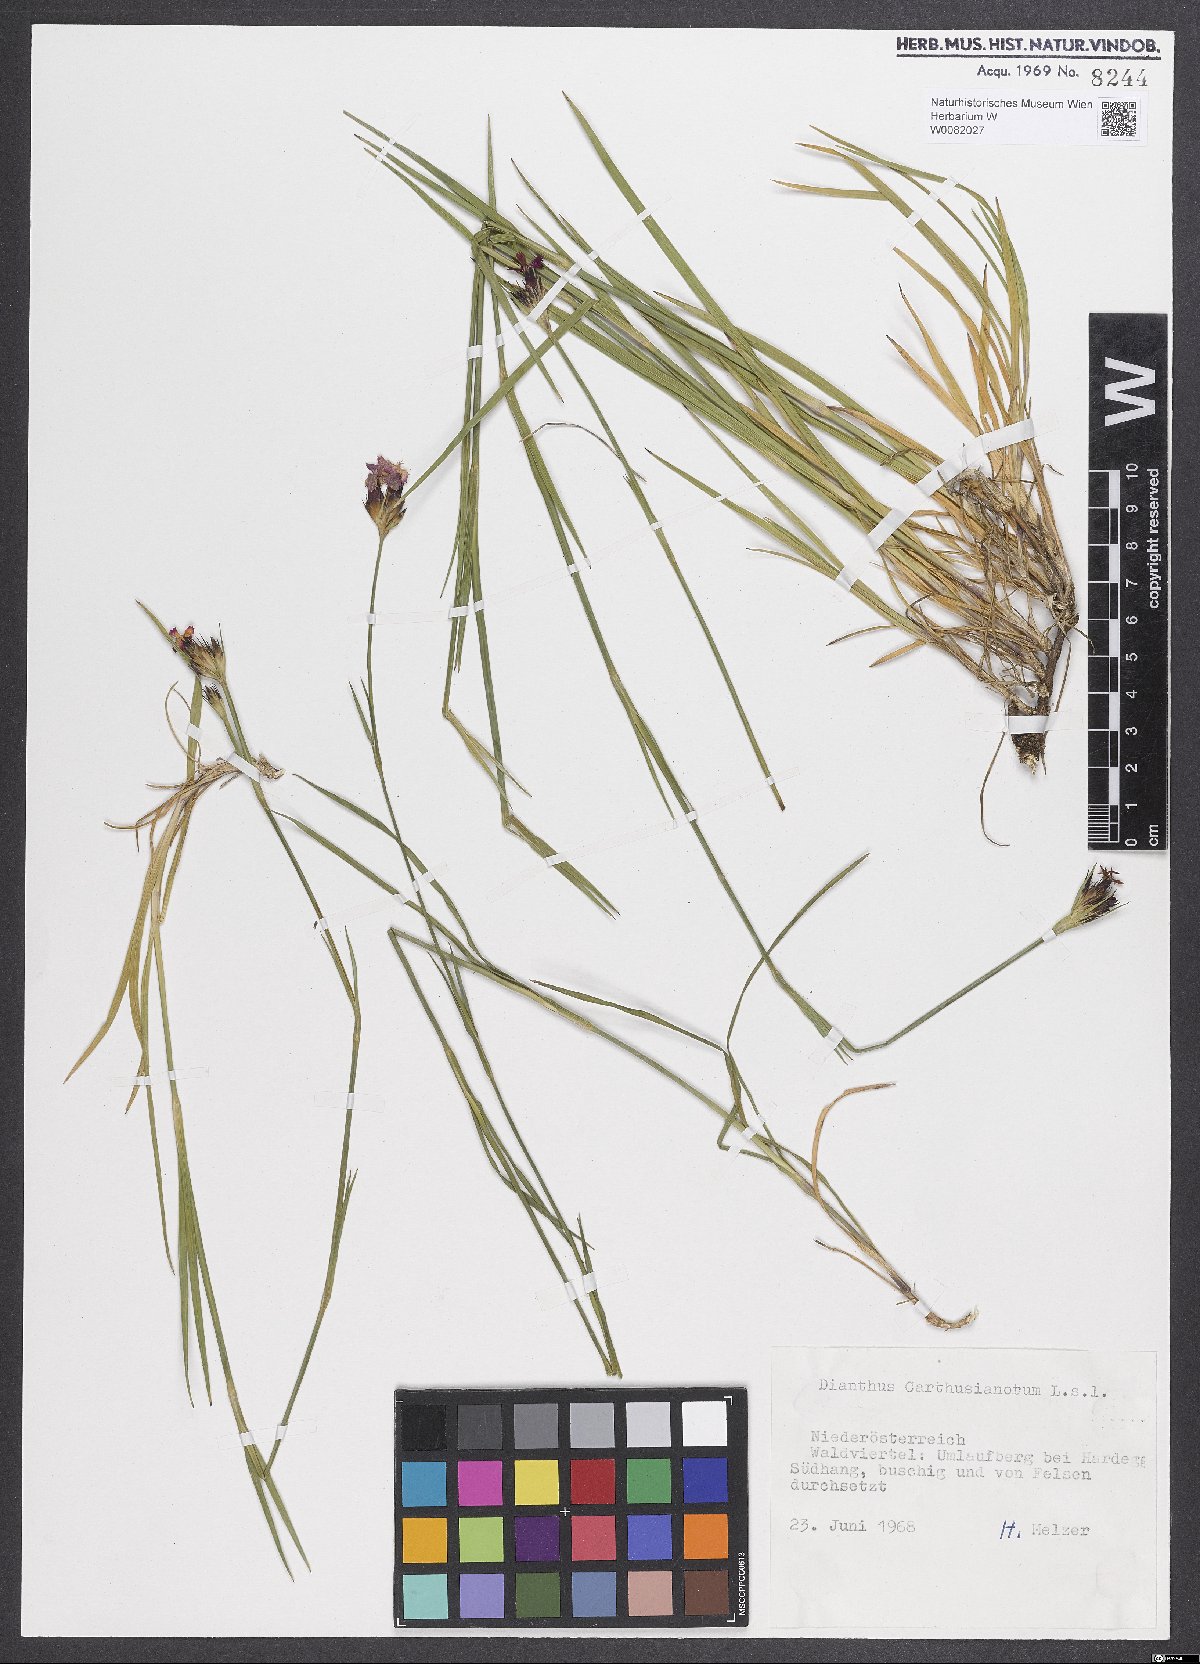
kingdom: Plantae
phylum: Tracheophyta
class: Magnoliopsida
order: Caryophyllales
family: Caryophyllaceae
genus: Dianthus
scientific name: Dianthus carthusianorum
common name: Carthusian pink
